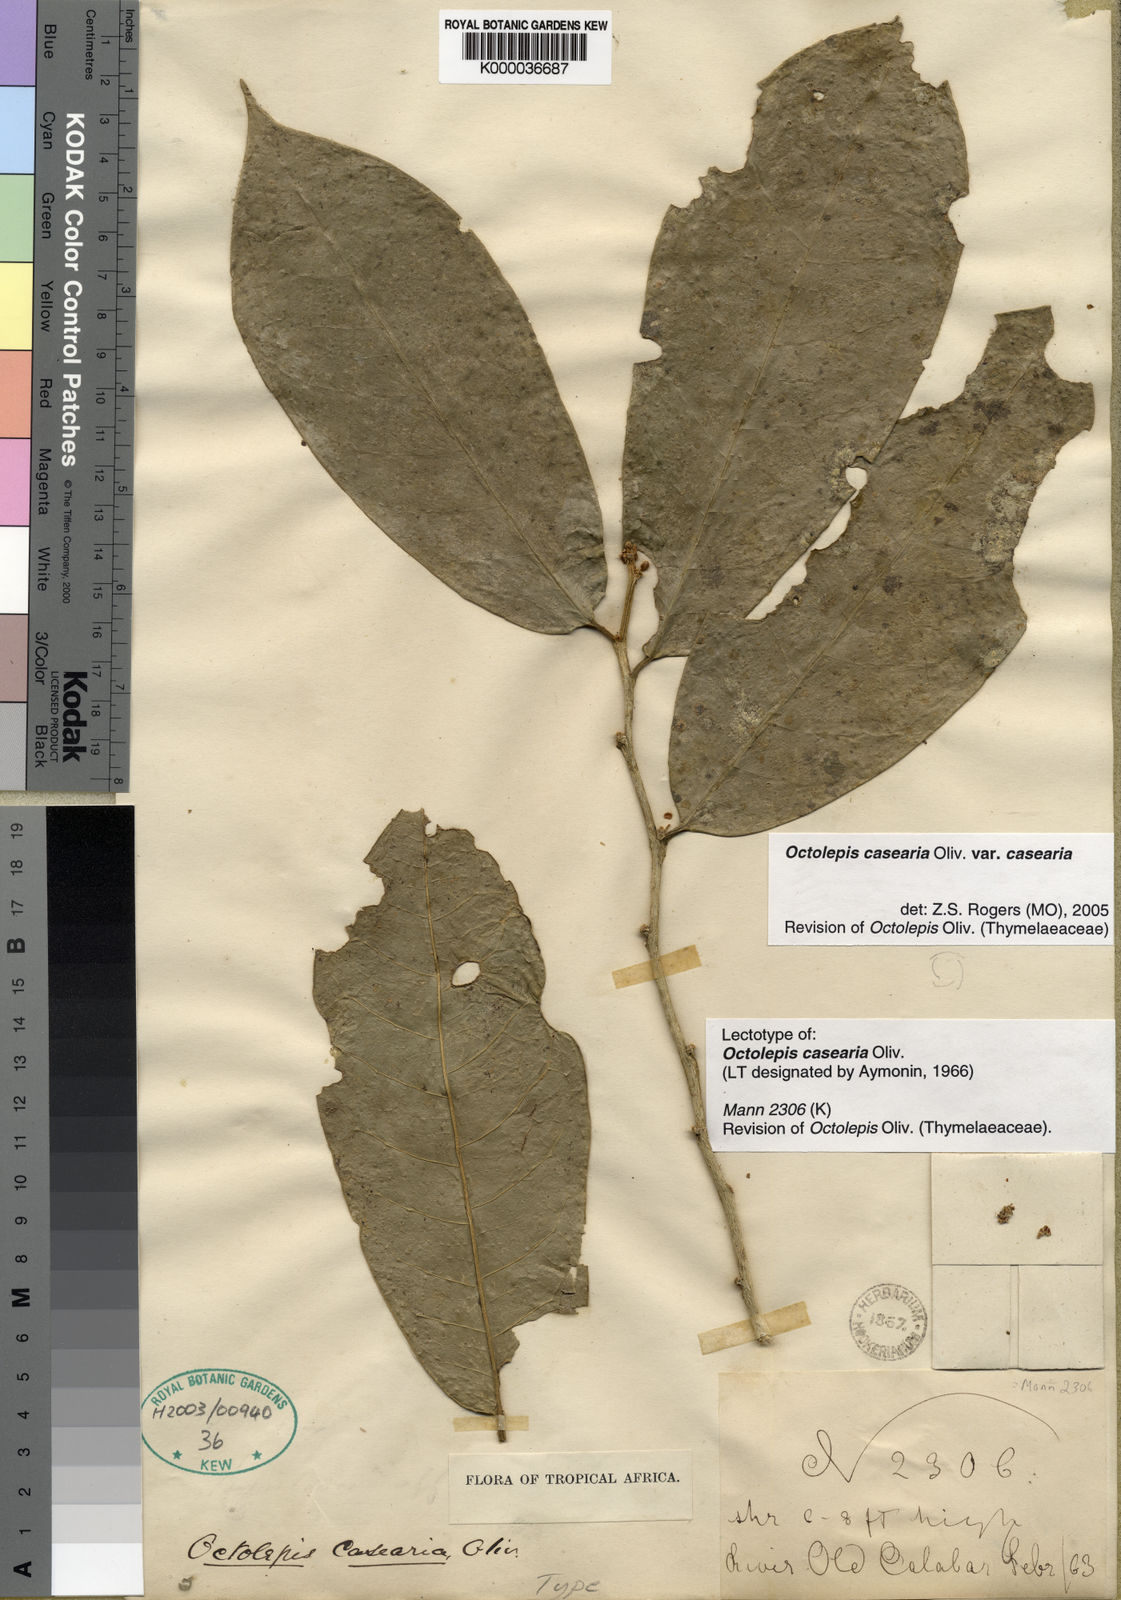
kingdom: Plantae
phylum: Tracheophyta
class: Magnoliopsida
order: Malvales
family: Thymelaeaceae
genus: Octolepis
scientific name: Octolepis casearia
